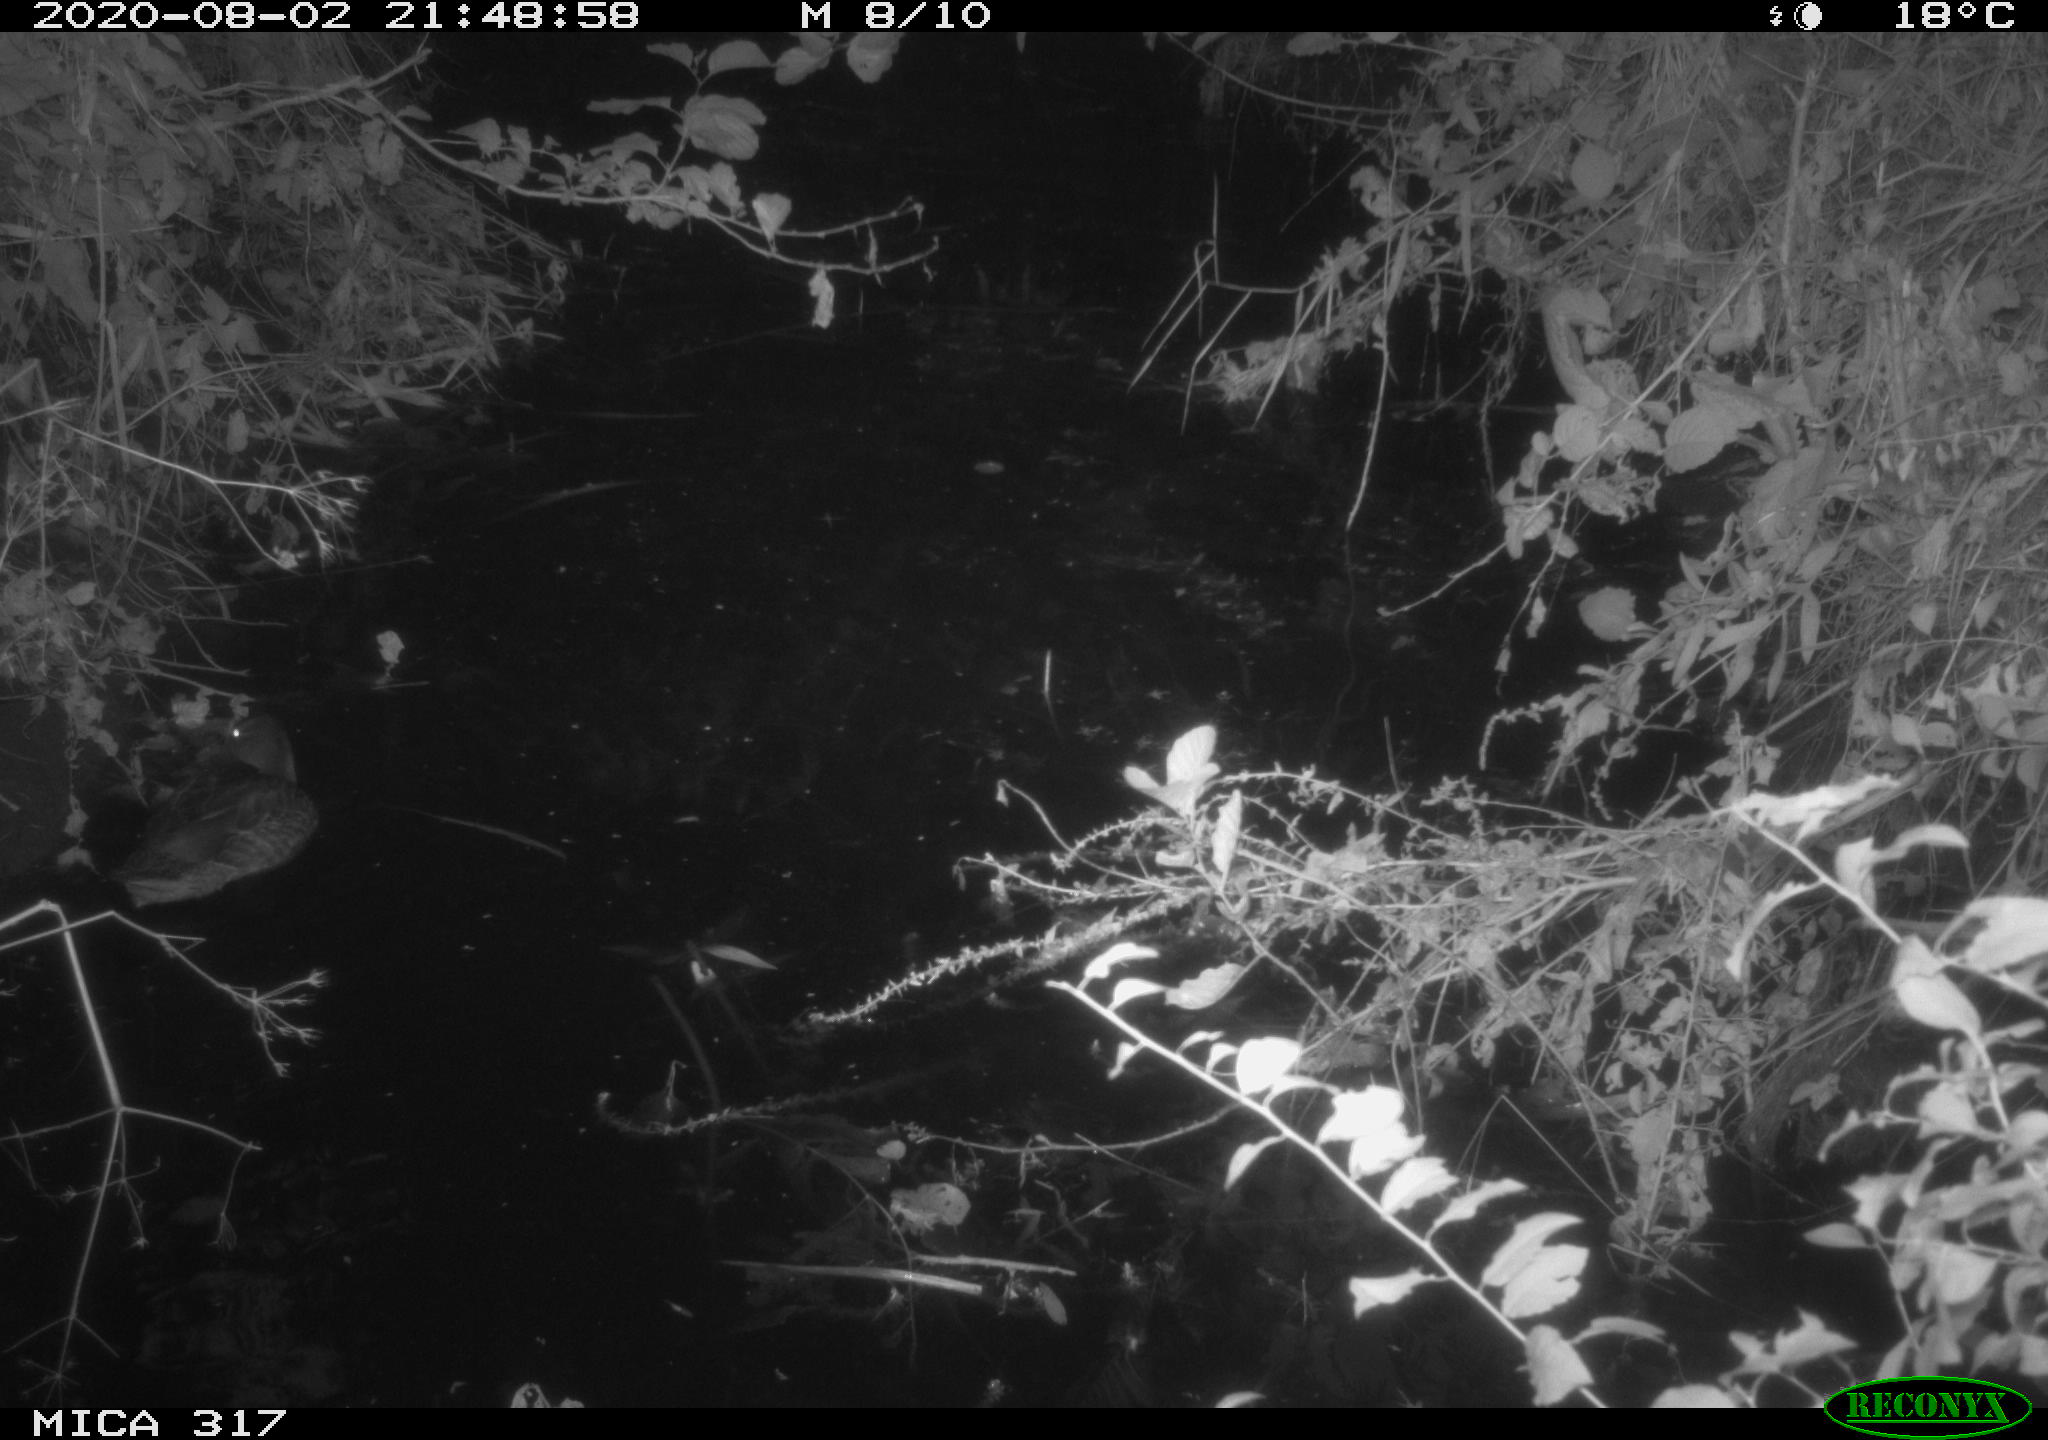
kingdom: Animalia
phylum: Chordata
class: Aves
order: Anseriformes
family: Anatidae
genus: Anas
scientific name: Anas platyrhynchos
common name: Mallard
